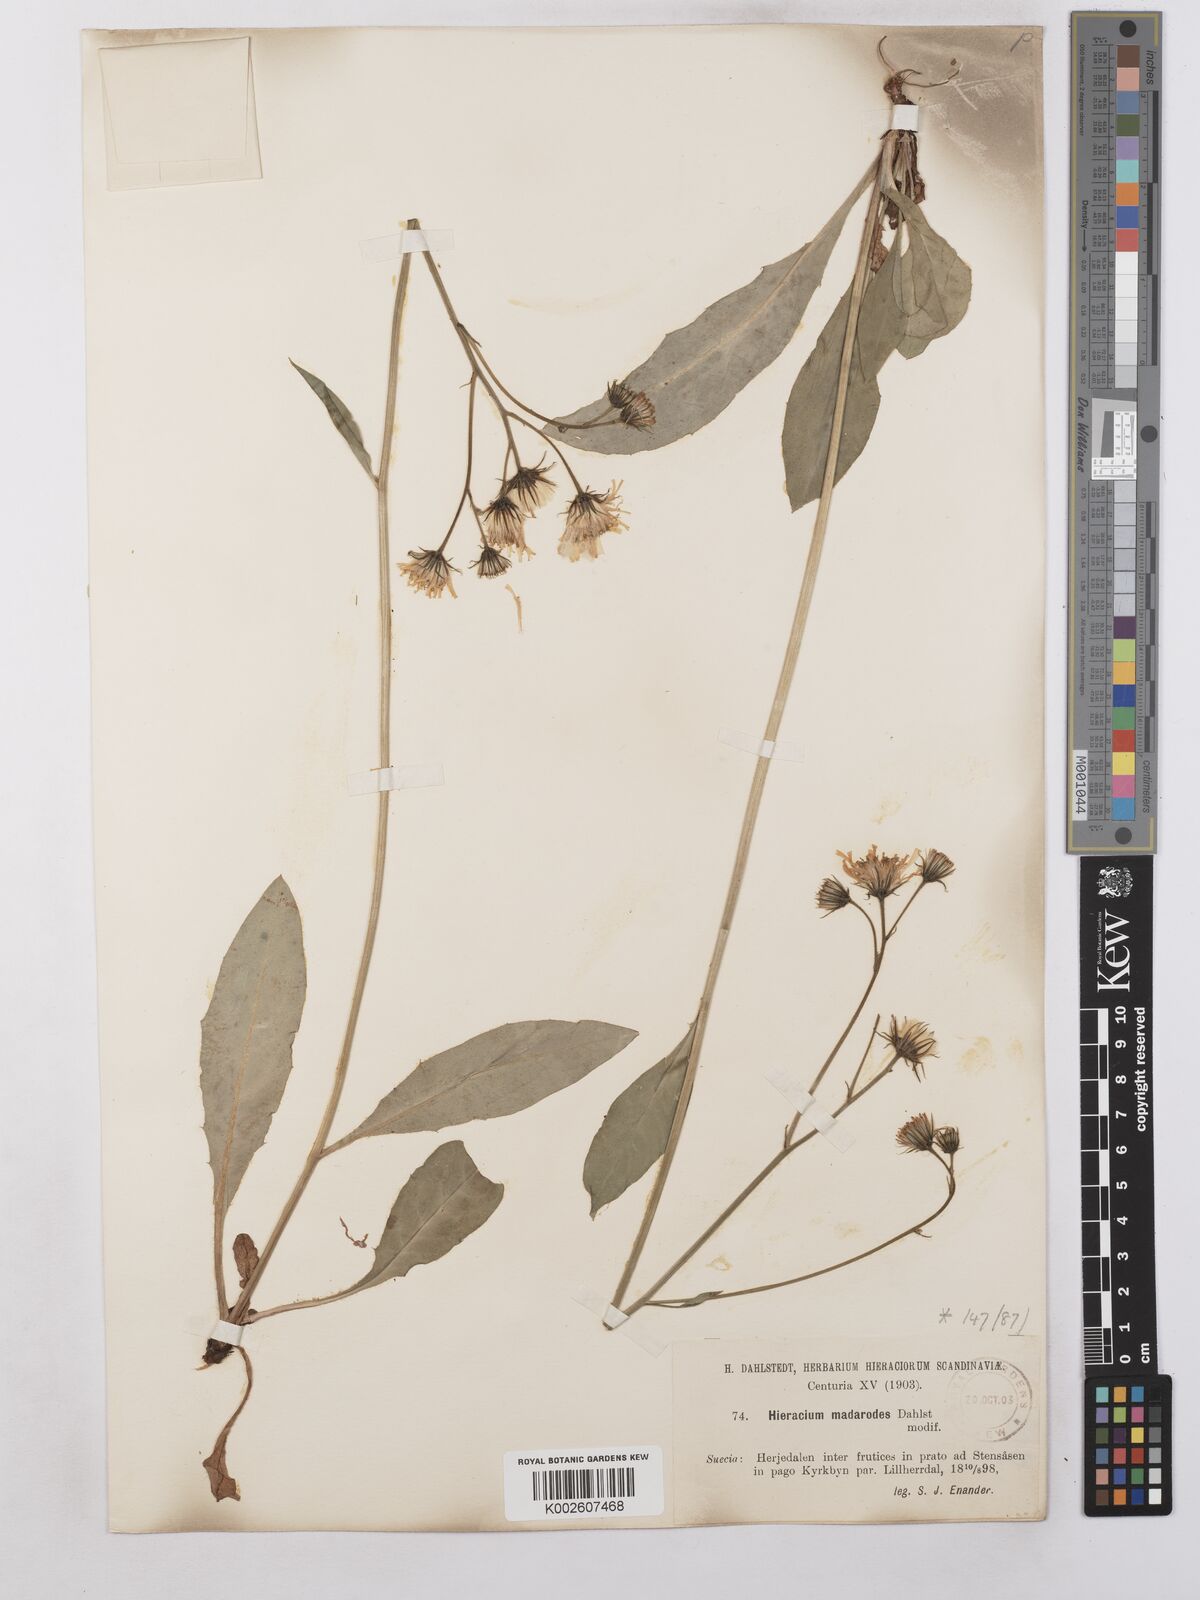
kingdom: Plantae
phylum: Tracheophyta
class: Magnoliopsida
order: Asterales
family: Asteraceae
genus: Hieracium
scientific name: Hieracium caesium
